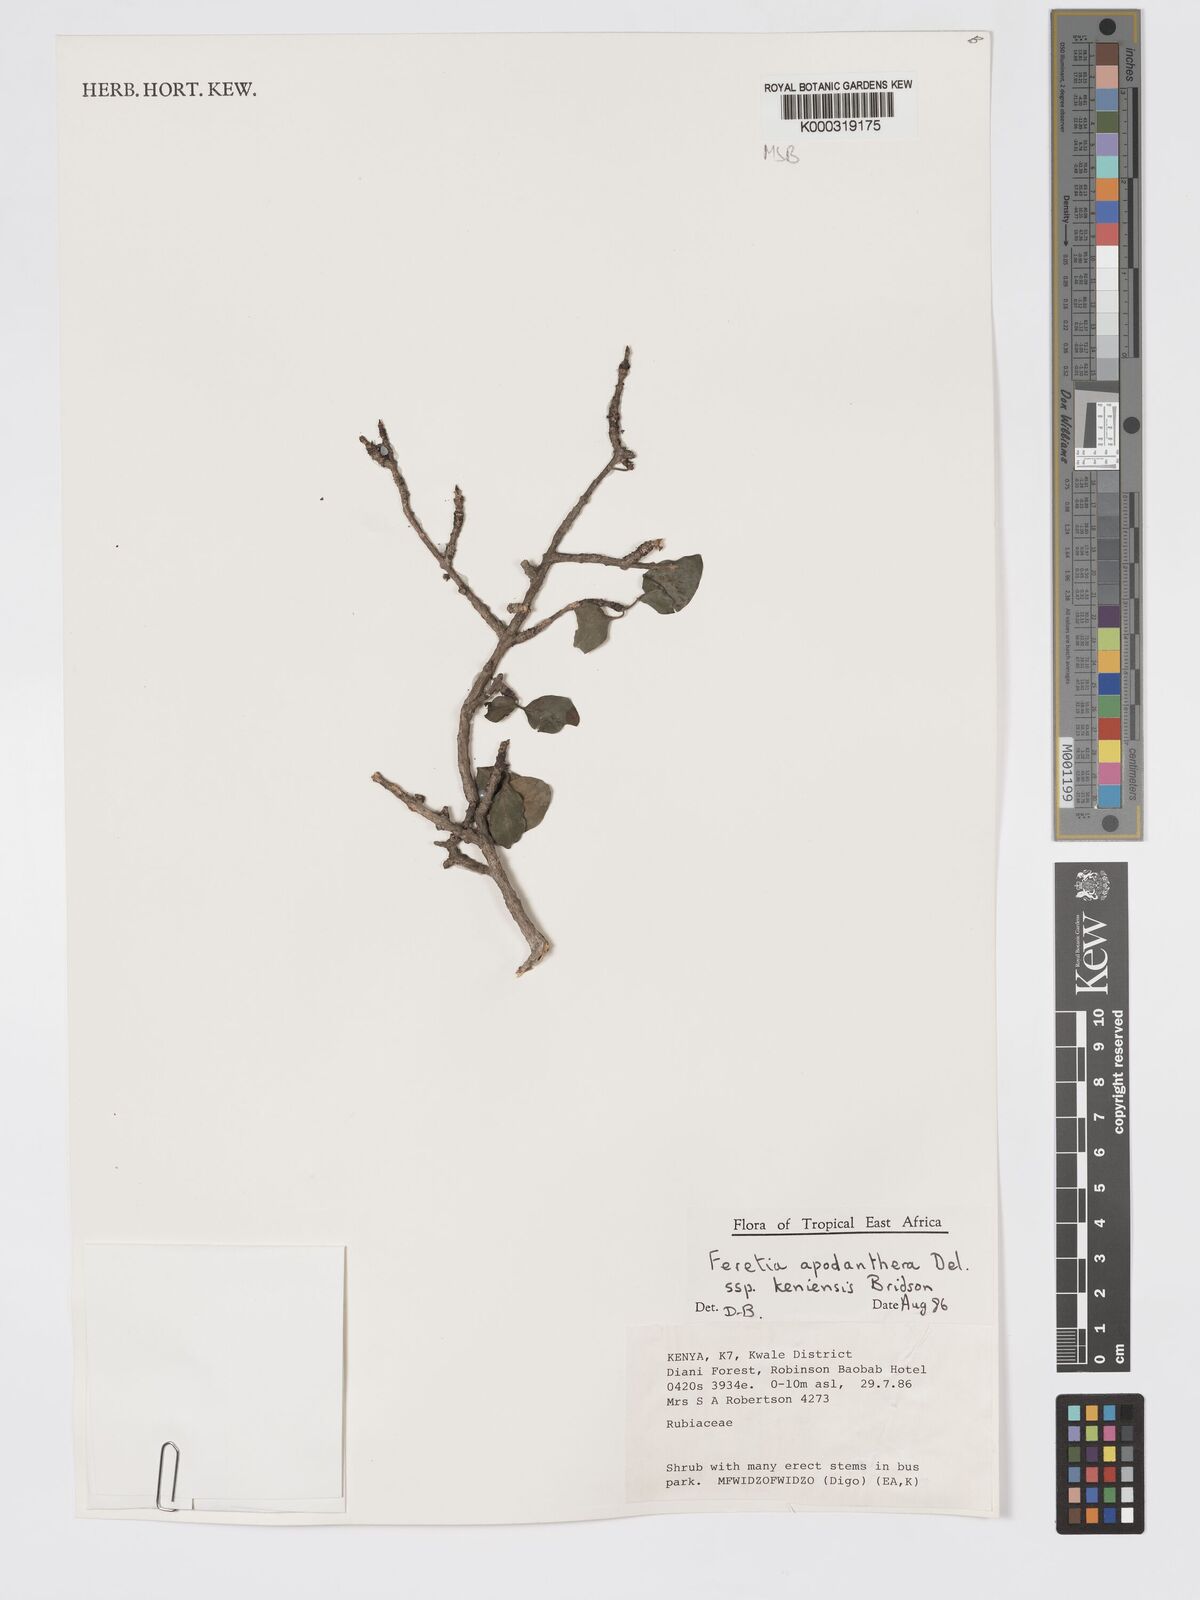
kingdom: Plantae
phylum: Tracheophyta
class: Magnoliopsida
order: Gentianales
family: Rubiaceae
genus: Feretia
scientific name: Feretia apodanthera
